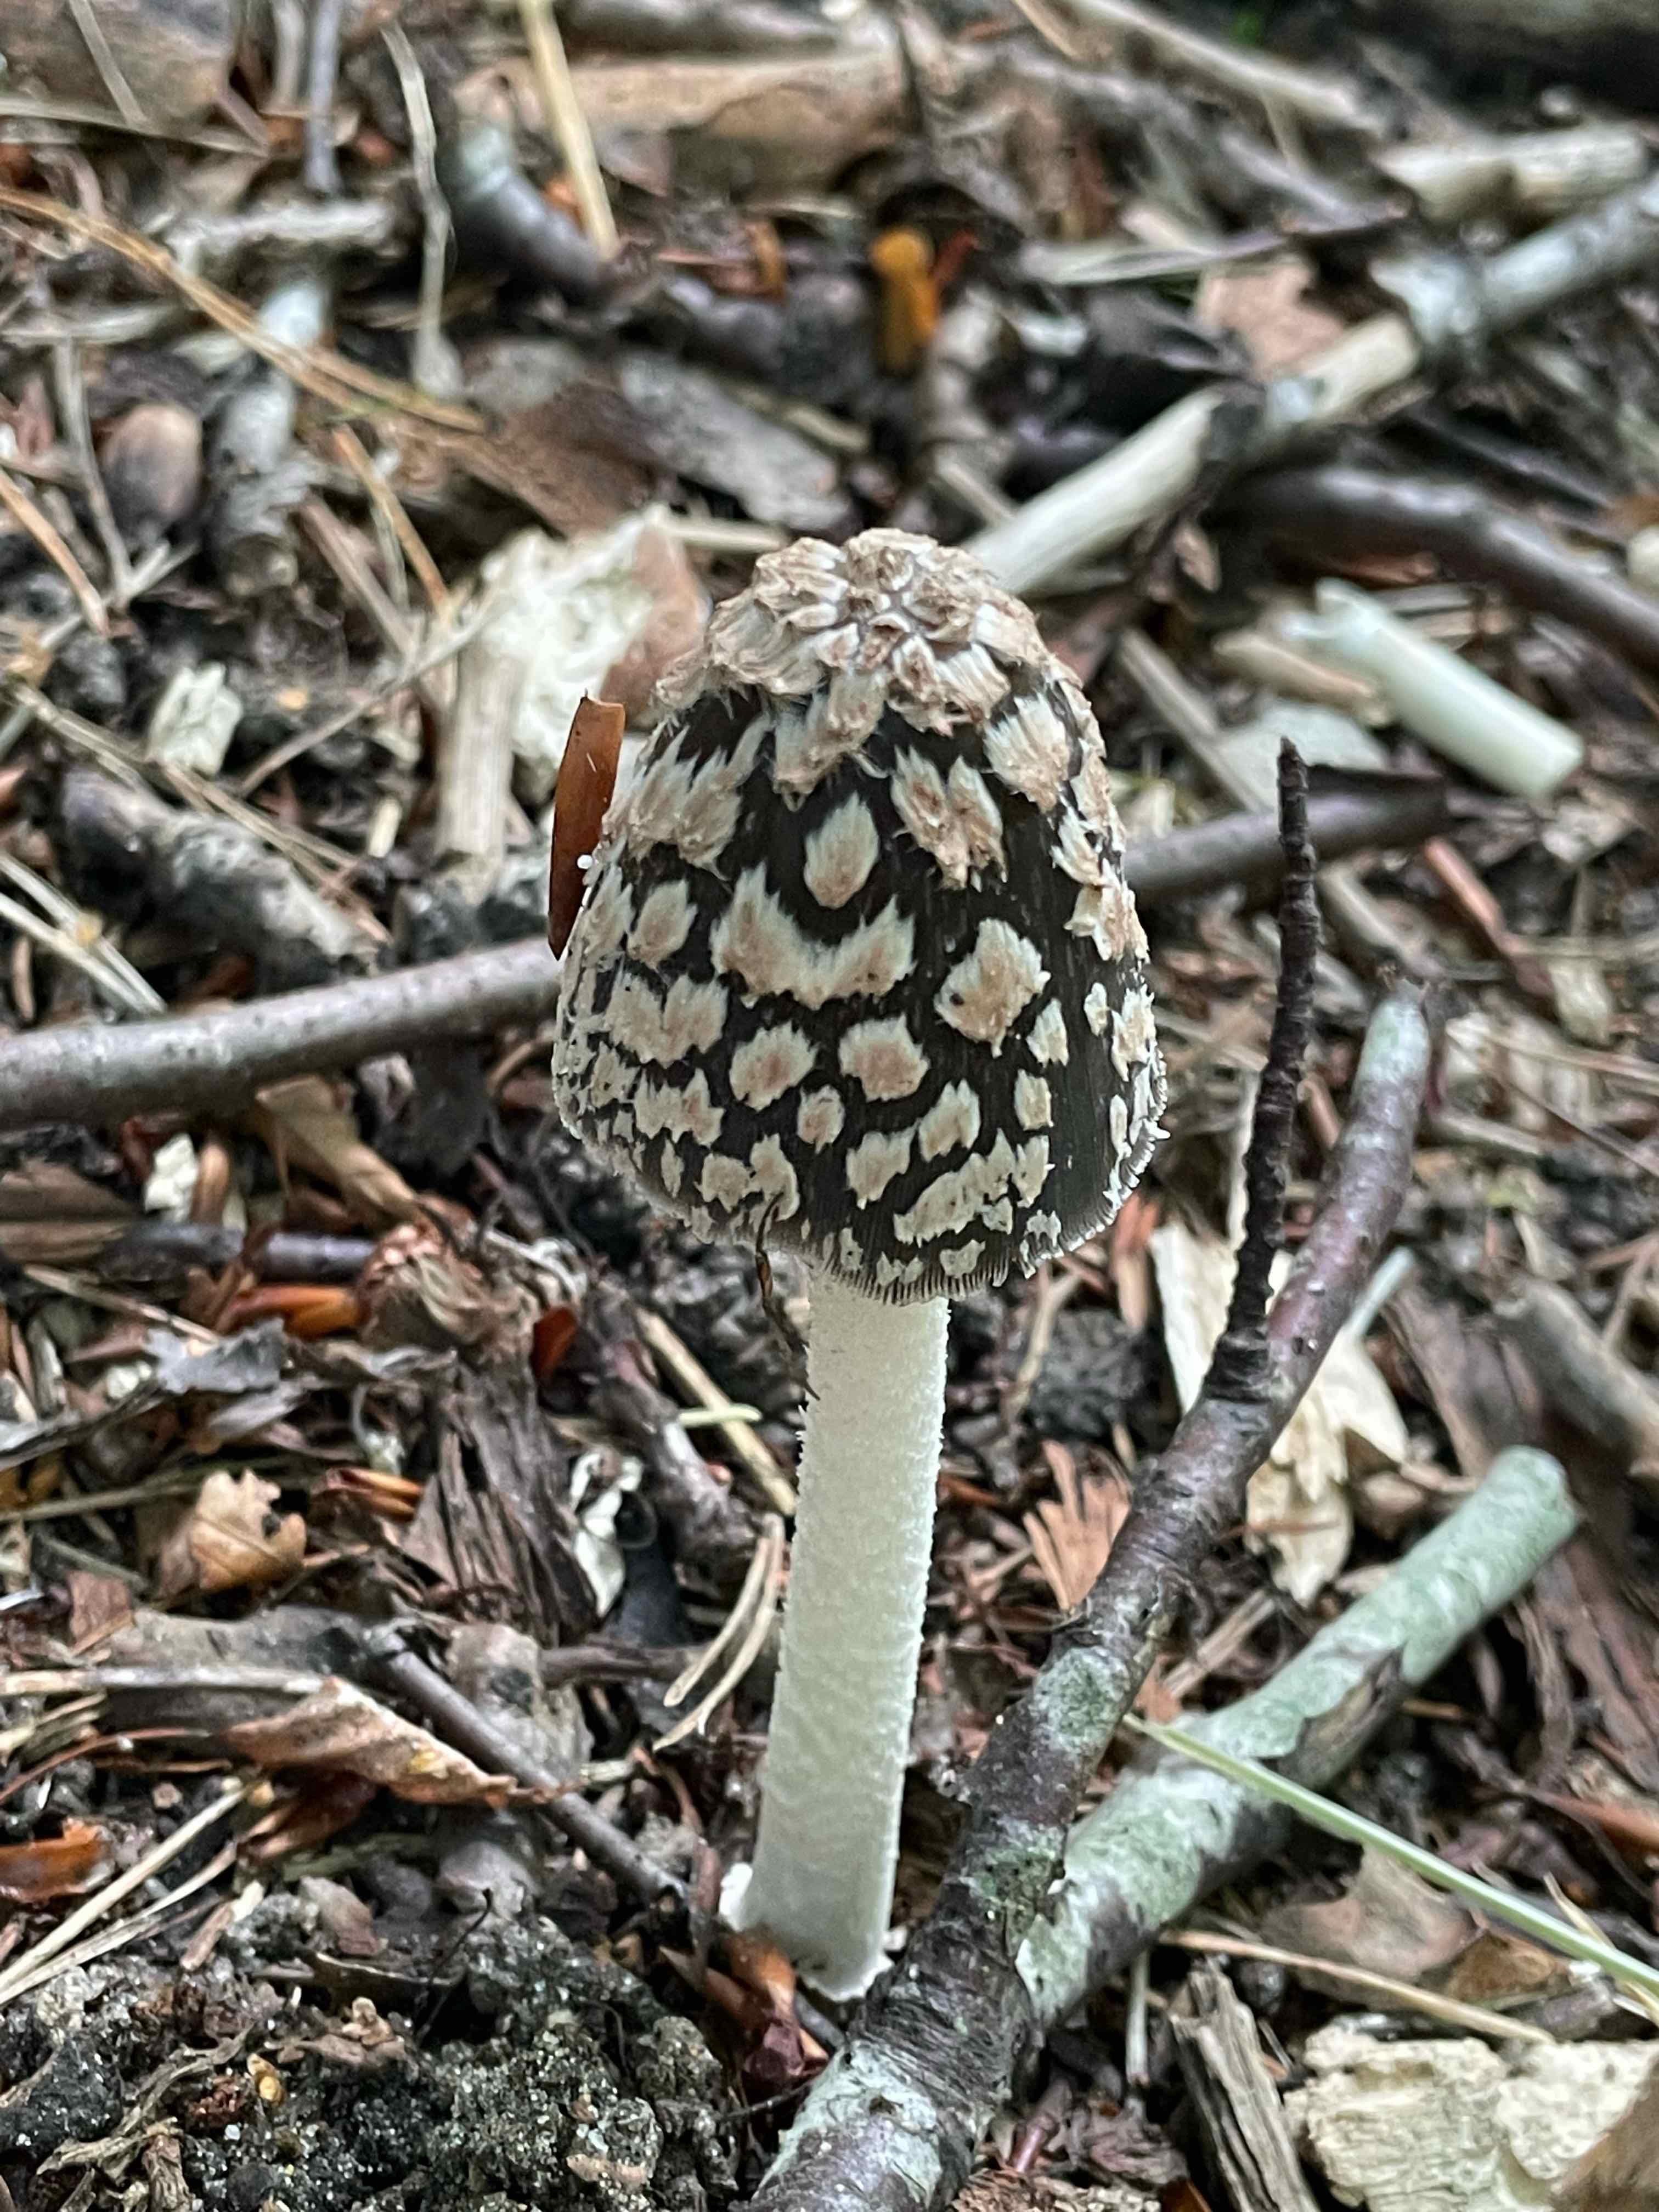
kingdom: Fungi
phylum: Basidiomycota
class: Agaricomycetes
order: Agaricales
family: Psathyrellaceae
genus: Coprinopsis
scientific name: Coprinopsis picacea
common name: skade-blækhat
